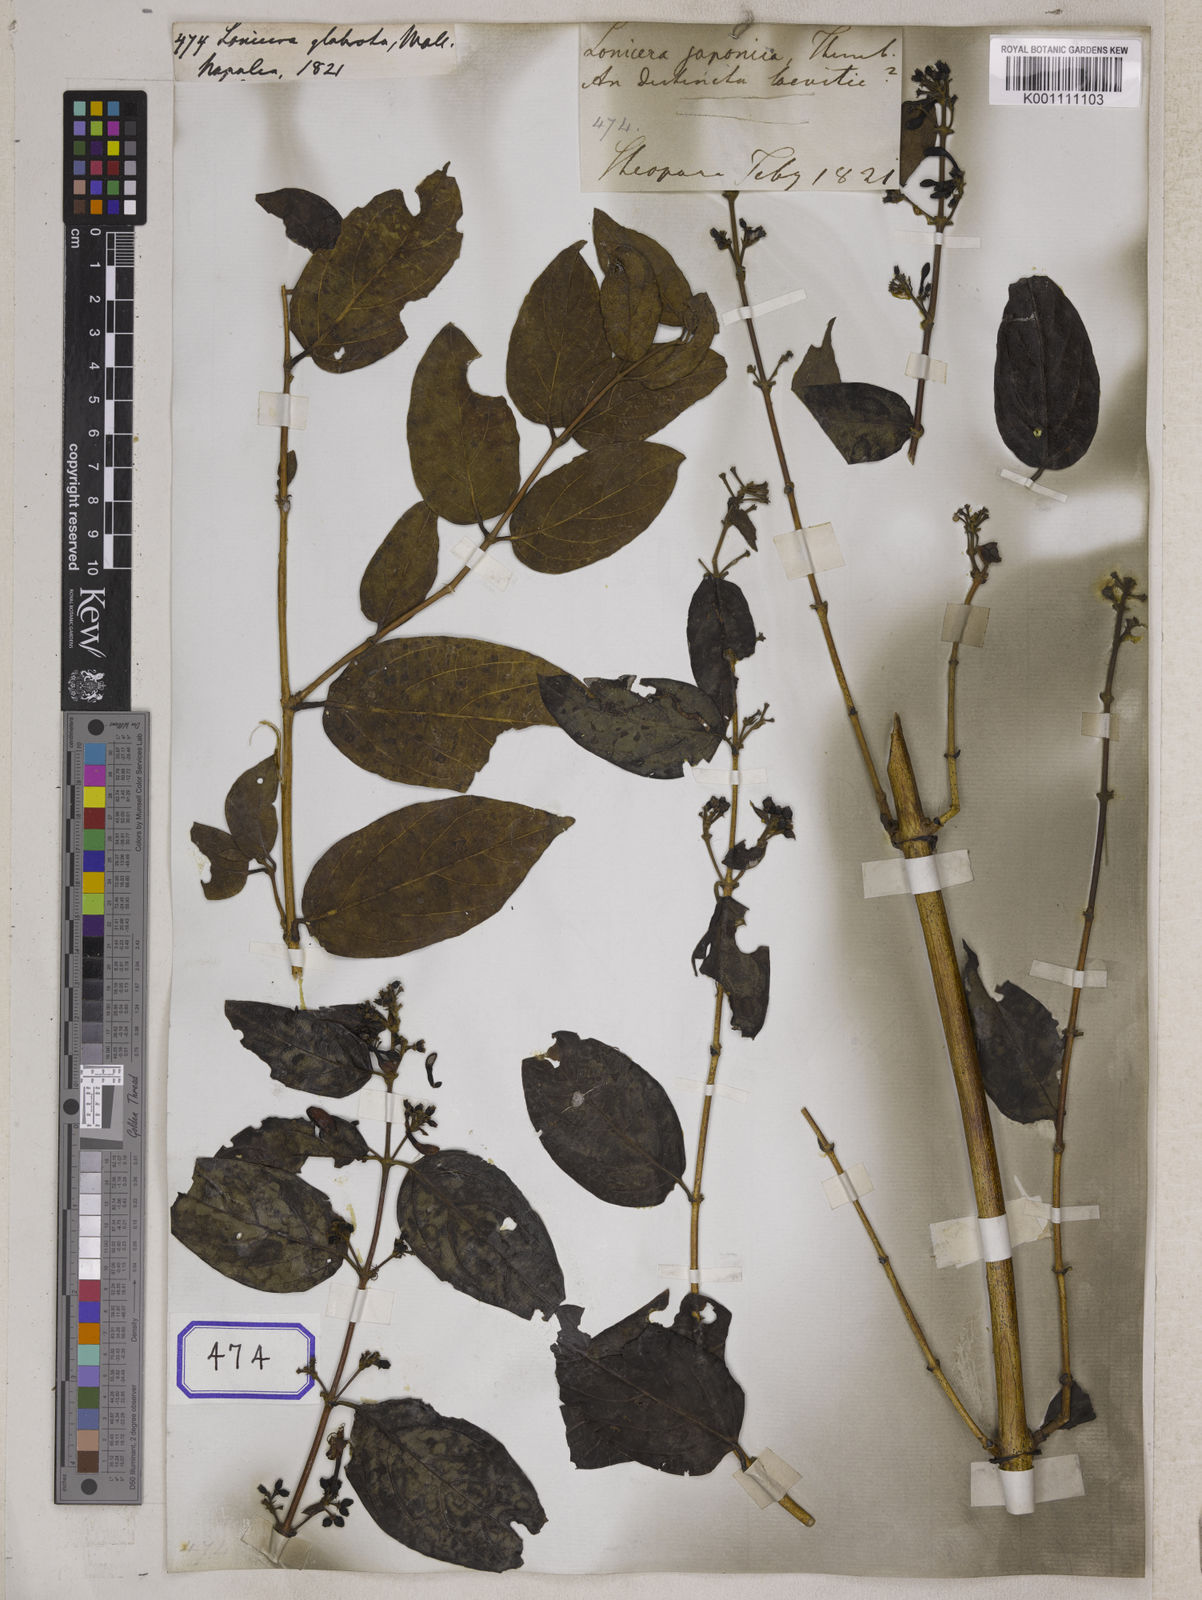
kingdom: Plantae
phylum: Tracheophyta
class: Magnoliopsida
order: Dipsacales
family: Caprifoliaceae
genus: Lonicera
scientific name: Lonicera glabrata
